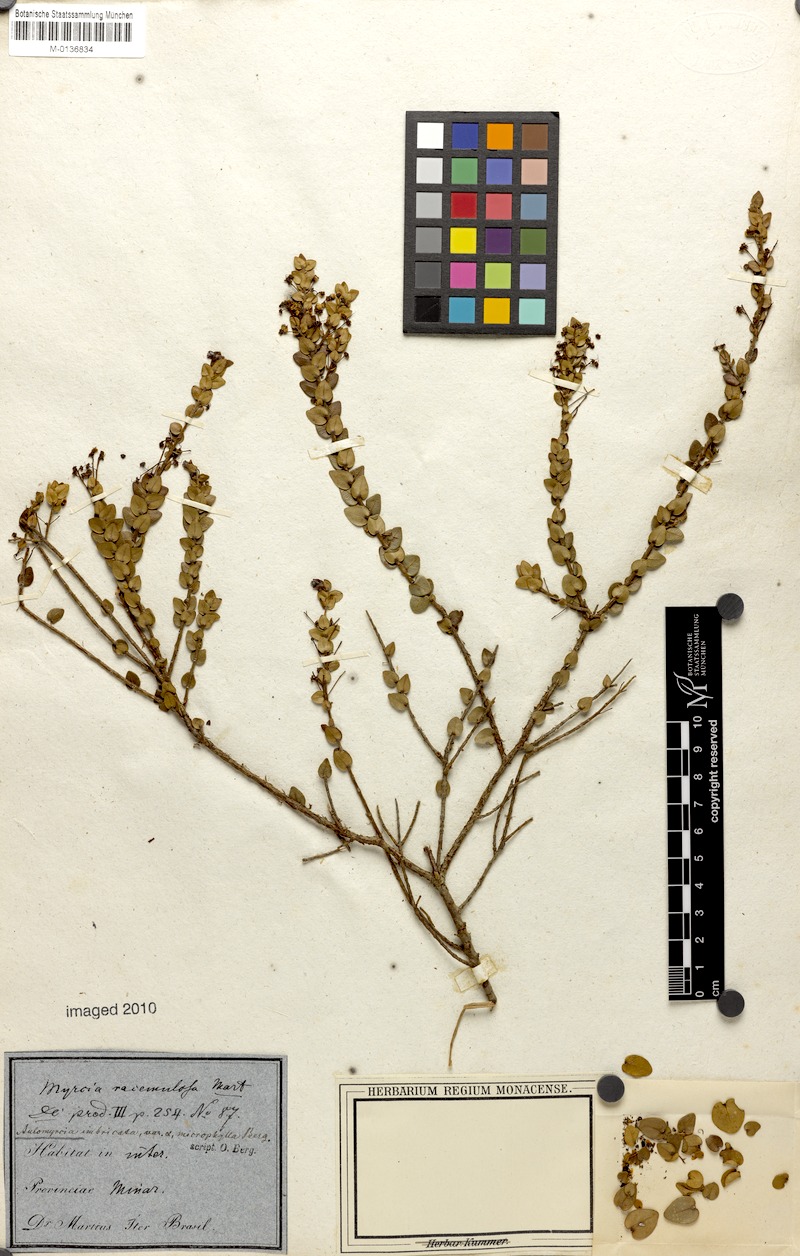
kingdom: Plantae
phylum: Tracheophyta
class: Magnoliopsida
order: Myrtales
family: Myrtaceae
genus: Myrcia
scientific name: Myrcia racemulosa
